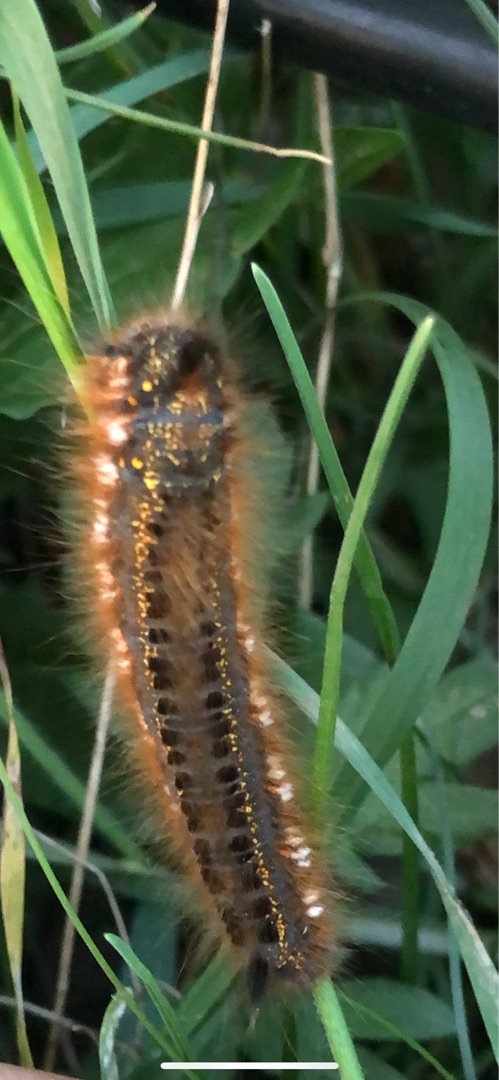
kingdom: Animalia
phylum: Arthropoda
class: Insecta
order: Lepidoptera
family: Lasiocampidae
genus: Euthrix
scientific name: Euthrix potatoria
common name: Græsspinder
